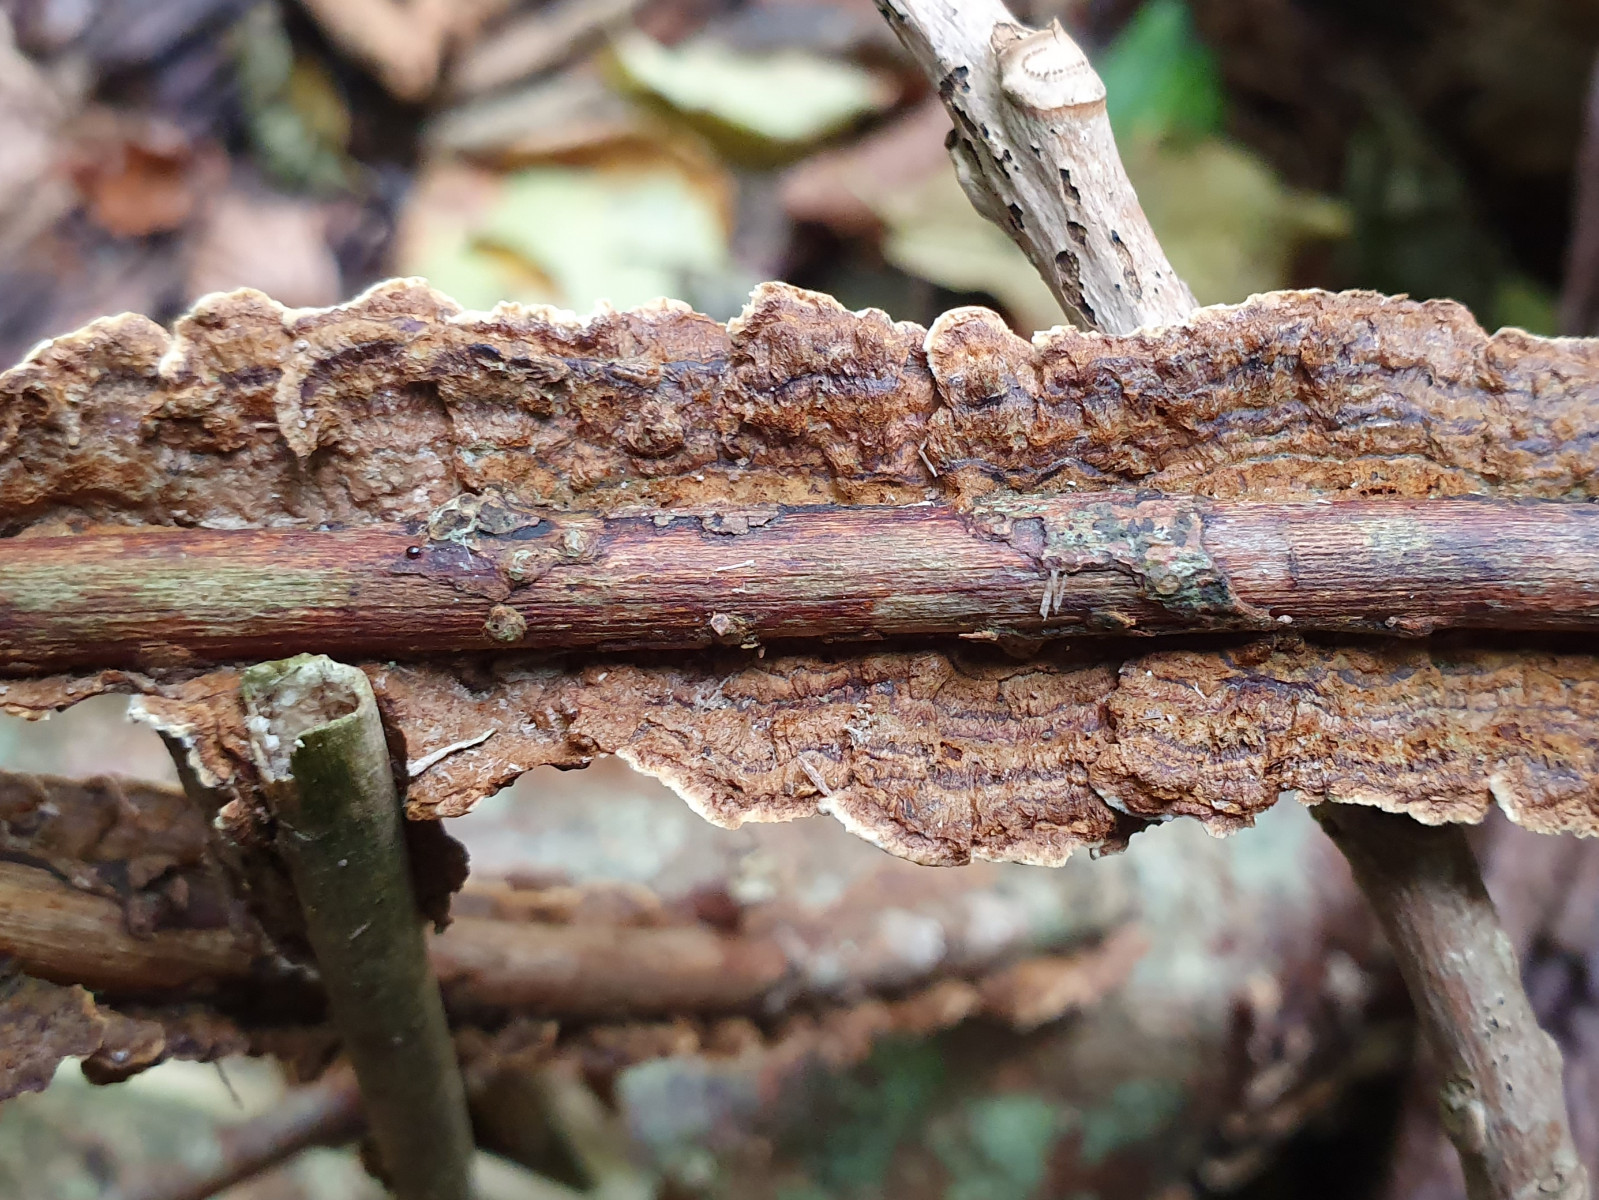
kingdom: Fungi
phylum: Basidiomycota
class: Agaricomycetes
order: Hymenochaetales
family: Hymenochaetaceae
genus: Hydnoporia
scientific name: Hydnoporia tabacina
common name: tobaksbrun ruslædersvamp
